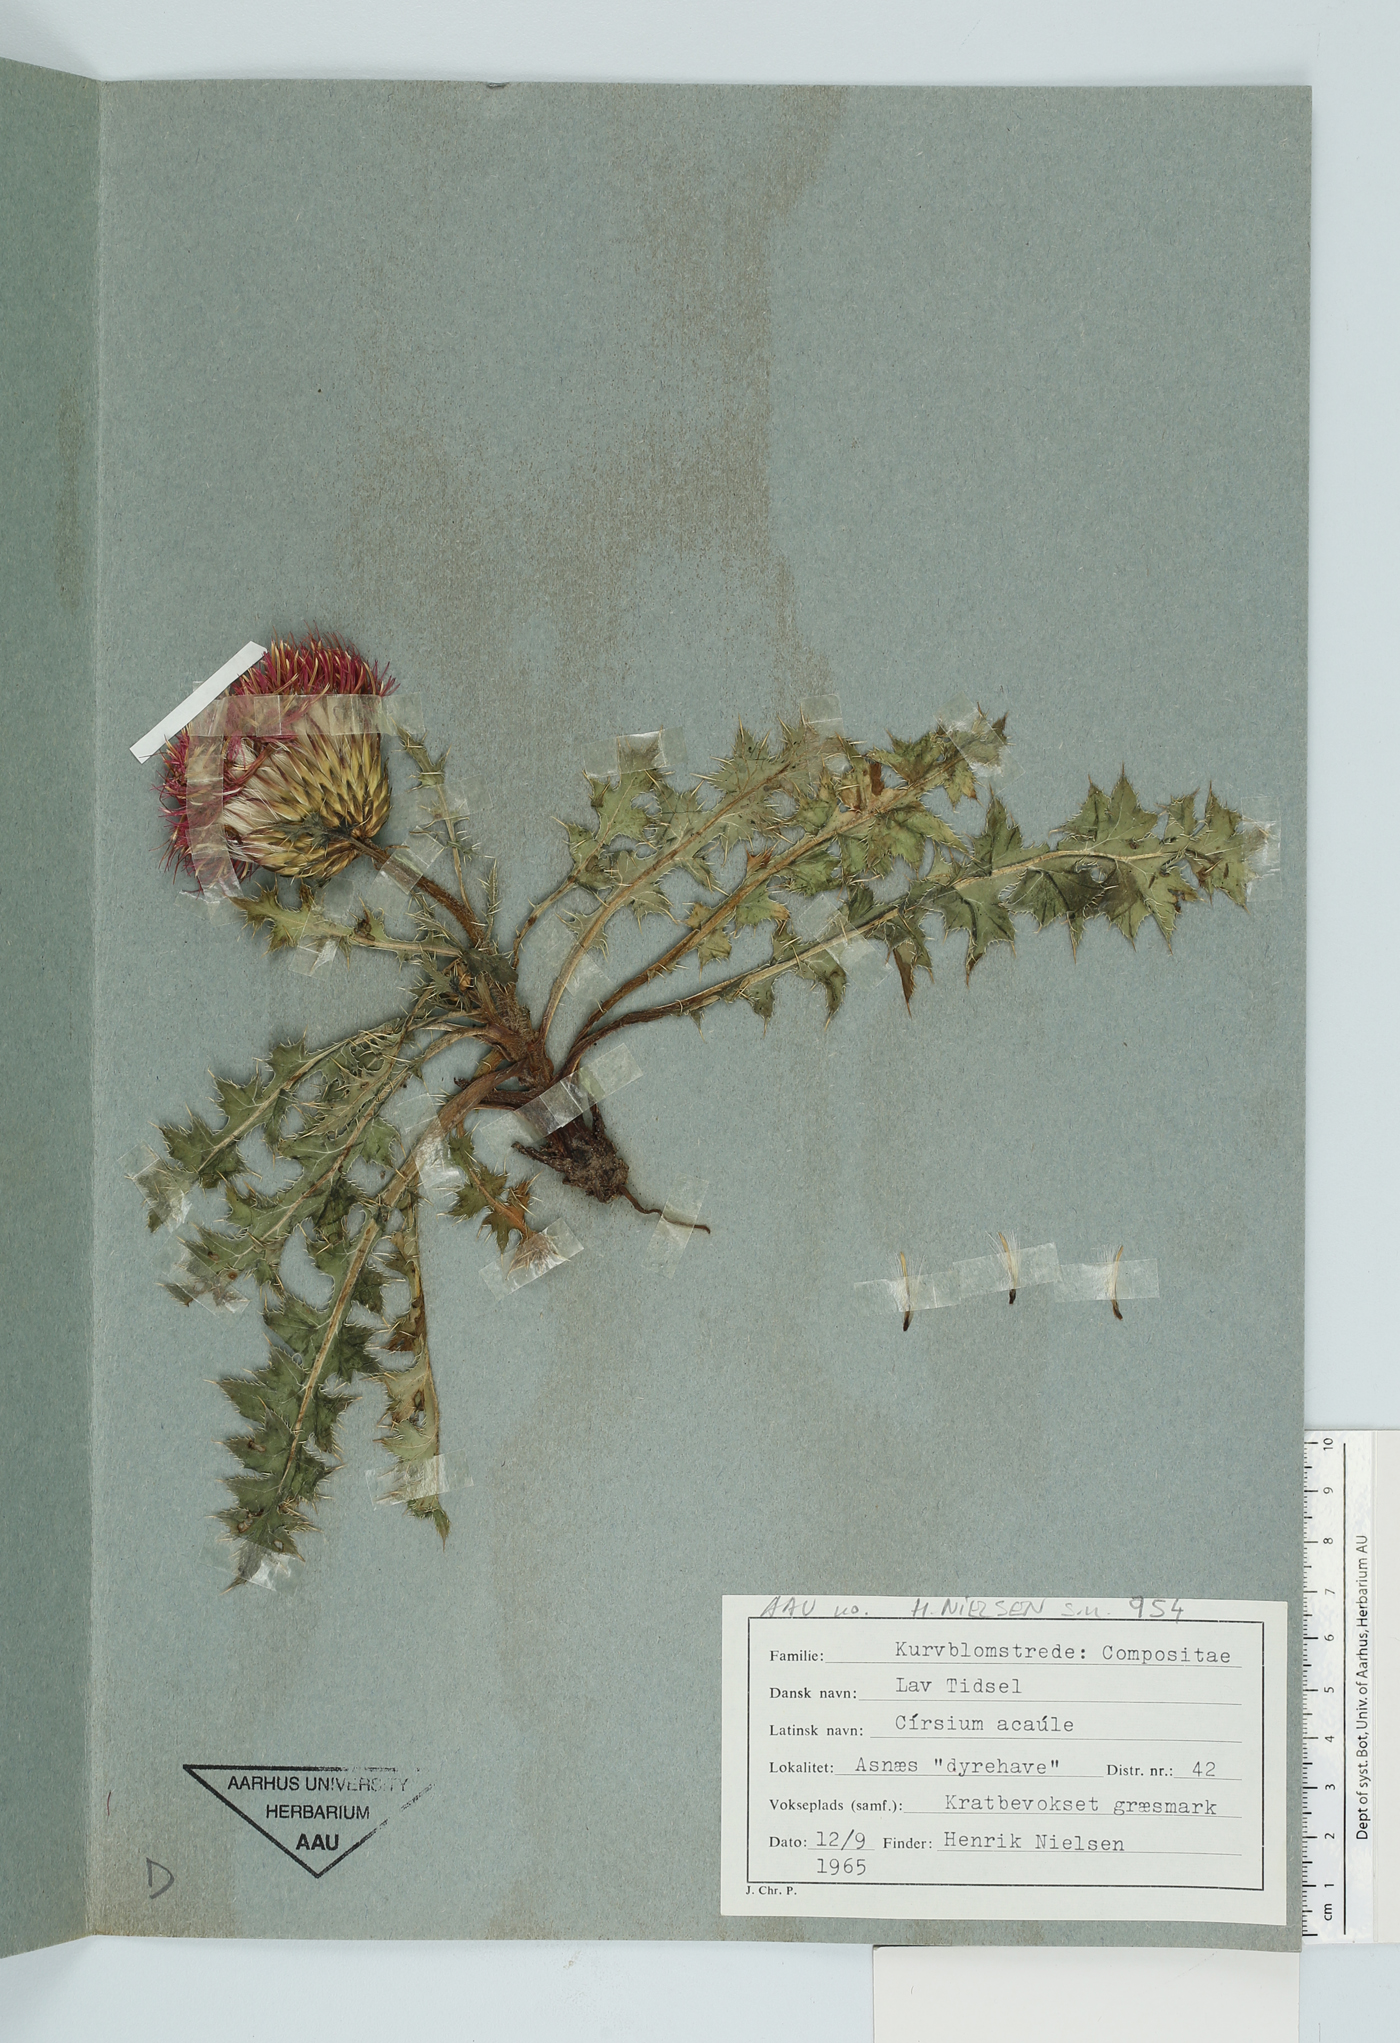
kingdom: Plantae
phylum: Tracheophyta
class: Magnoliopsida
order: Asterales
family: Asteraceae
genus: Cirsium
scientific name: Cirsium acaule
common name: Dwarf thistle
